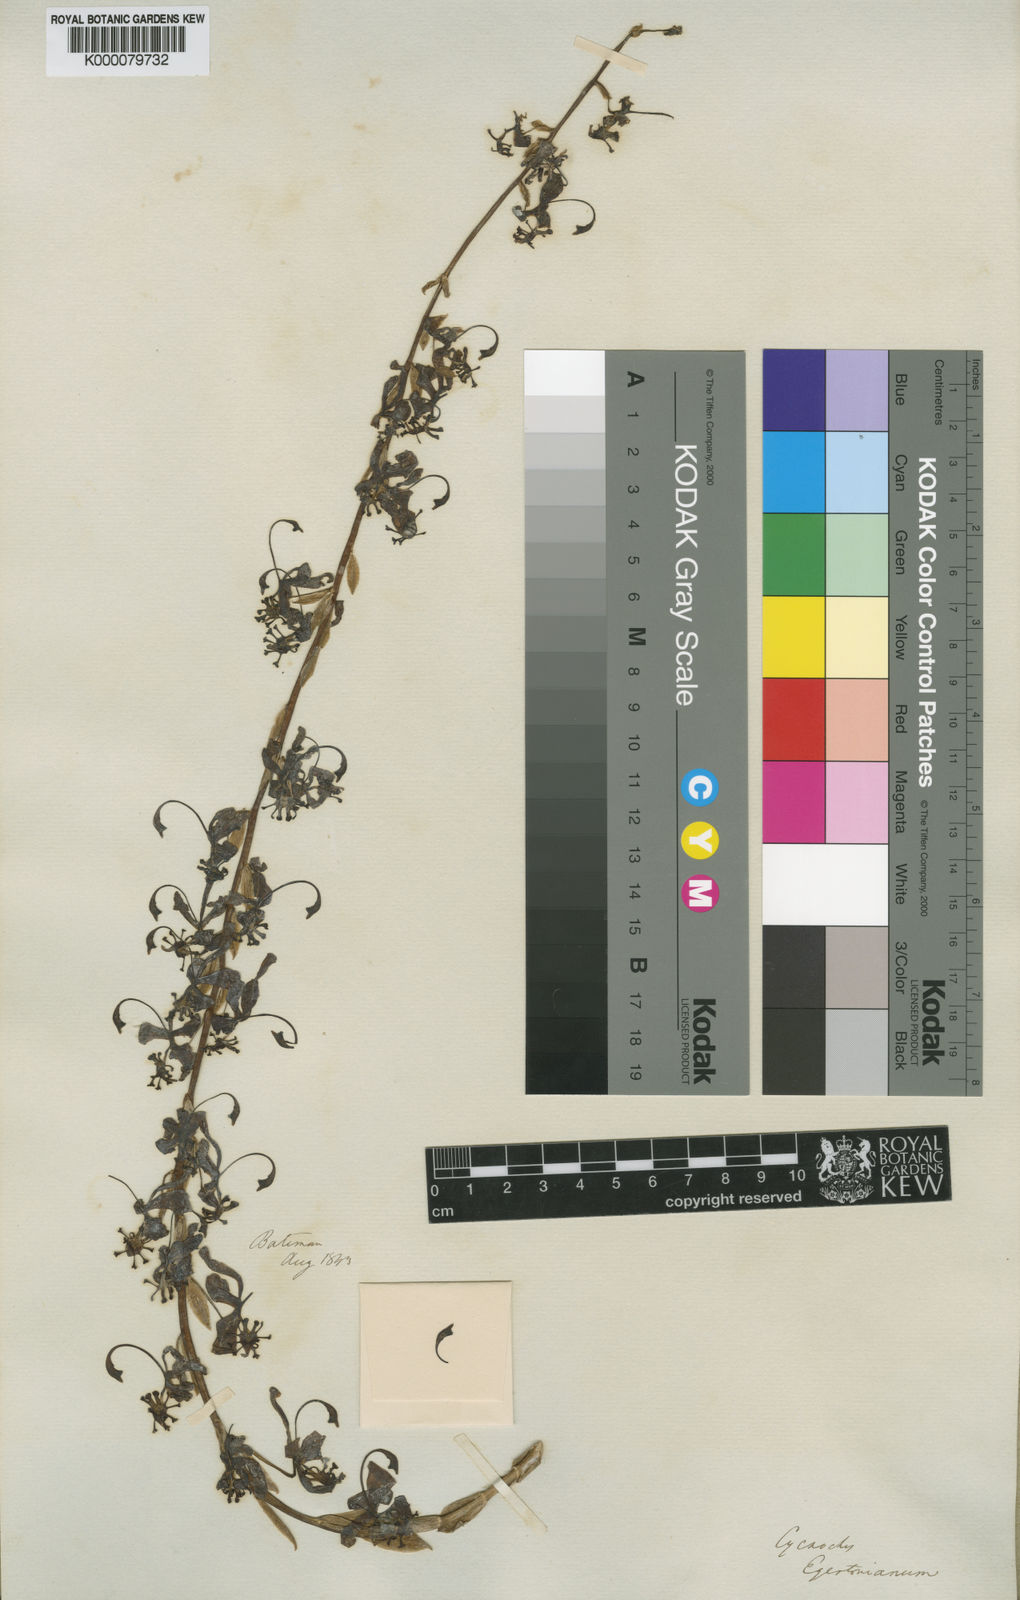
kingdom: Plantae
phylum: Tracheophyta
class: Liliopsida
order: Asparagales
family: Orchidaceae
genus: Cycnoches
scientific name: Cycnoches egertonianum
